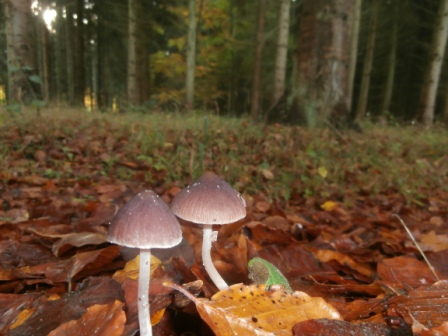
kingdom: Fungi
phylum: Basidiomycota
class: Agaricomycetes
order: Agaricales
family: Psathyrellaceae
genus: Psathyrella
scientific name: Psathyrella bipellis
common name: vinrød mørkhat
